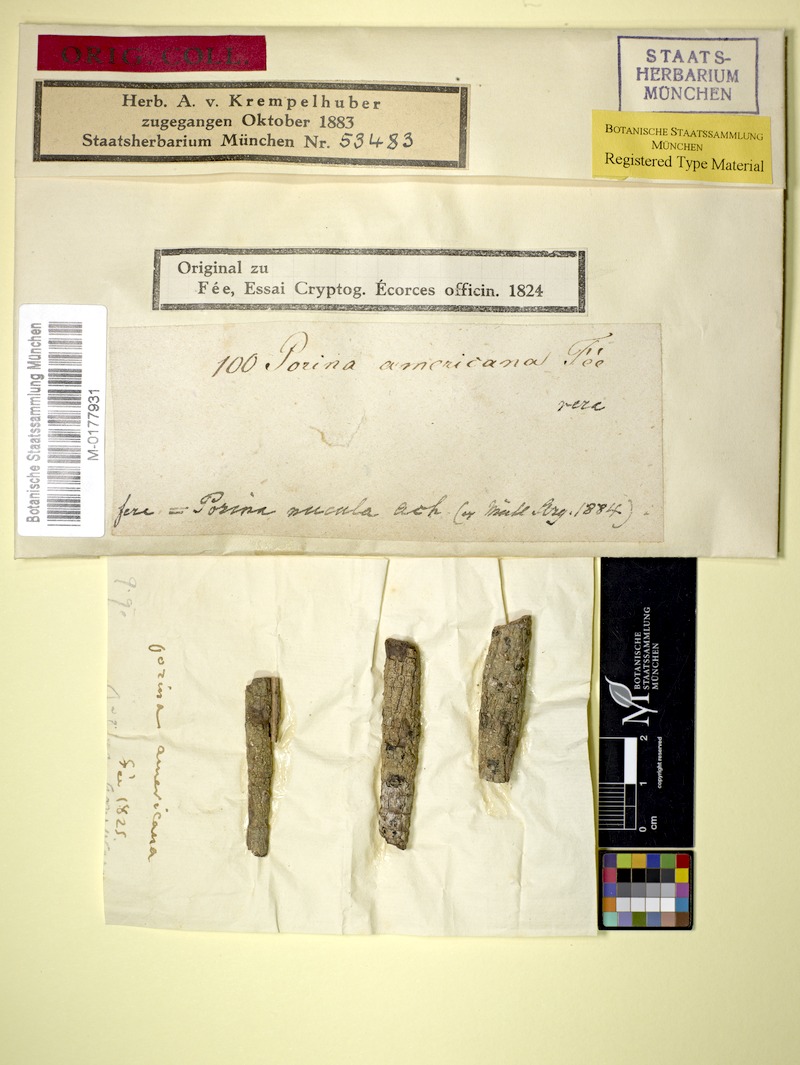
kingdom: Fungi
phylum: Ascomycota
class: Lecanoromycetes
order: Ostropales
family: Porinaceae
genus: Porina
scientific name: Porina americana
